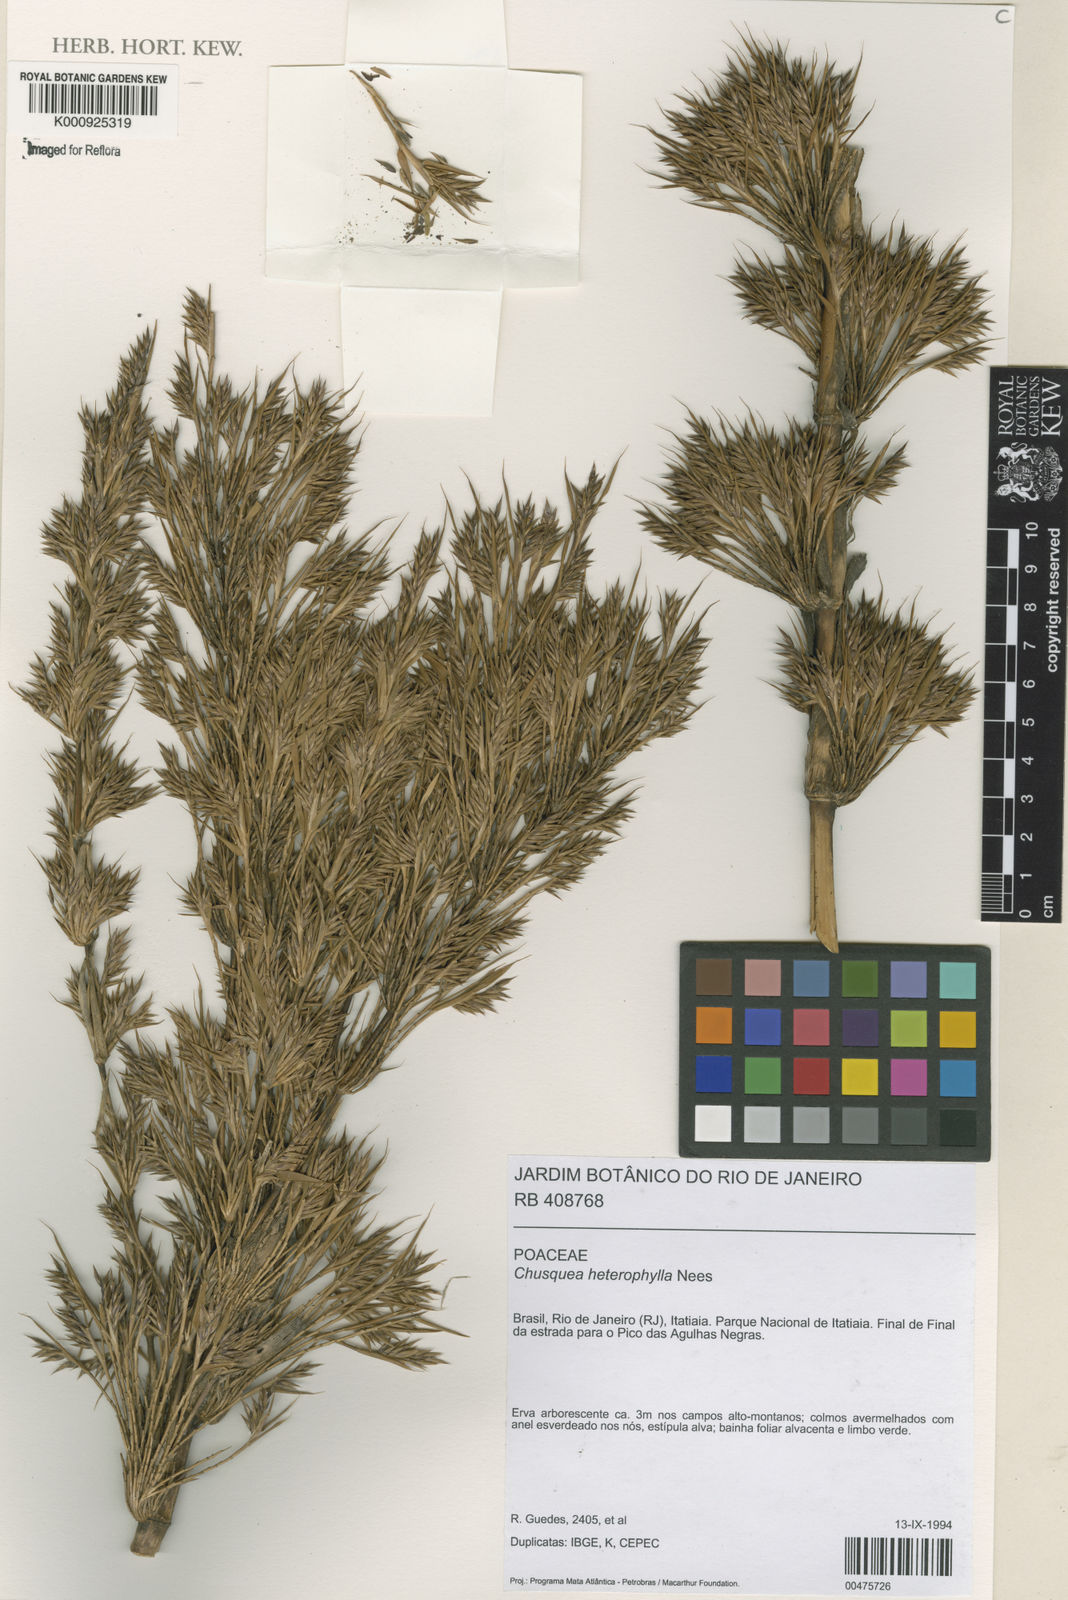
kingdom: Plantae
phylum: Tracheophyta
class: Liliopsida
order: Poales
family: Poaceae
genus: Chusquea
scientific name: Chusquea heterophylla
